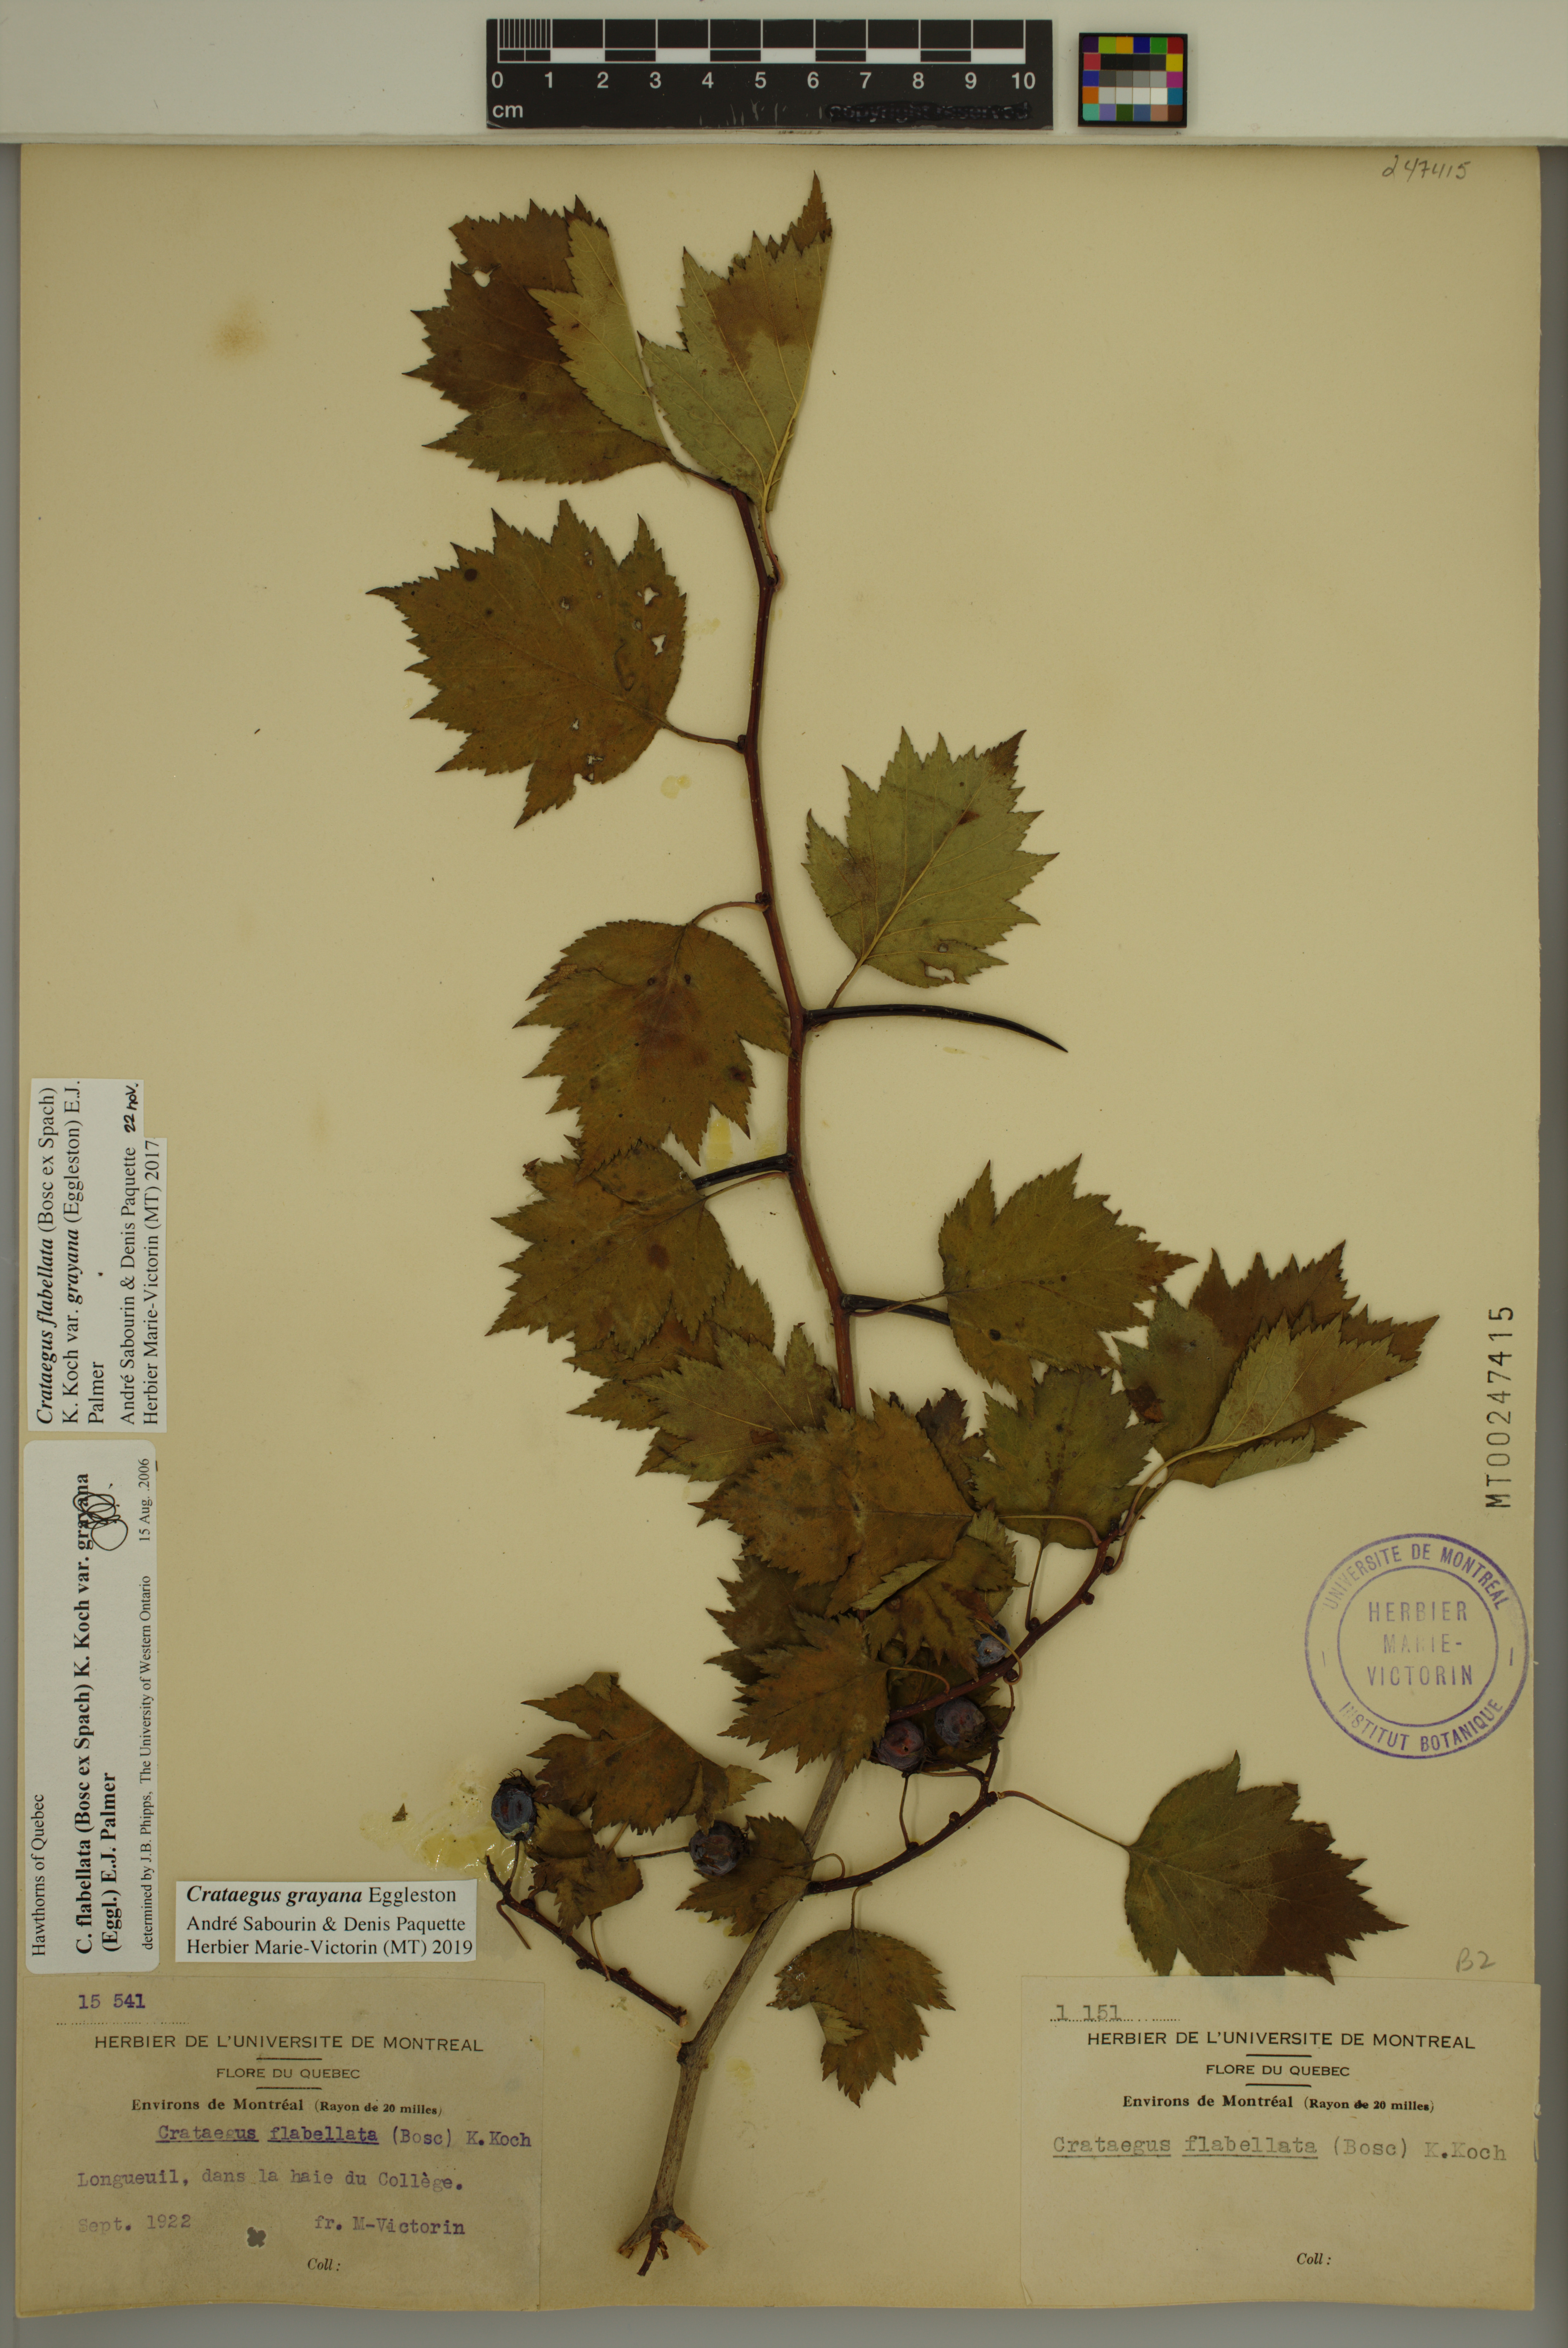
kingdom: Plantae
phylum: Tracheophyta
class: Magnoliopsida
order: Rosales
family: Rosaceae
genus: Crataegus
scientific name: Crataegus schuettei
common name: Schuette's hawthorn
